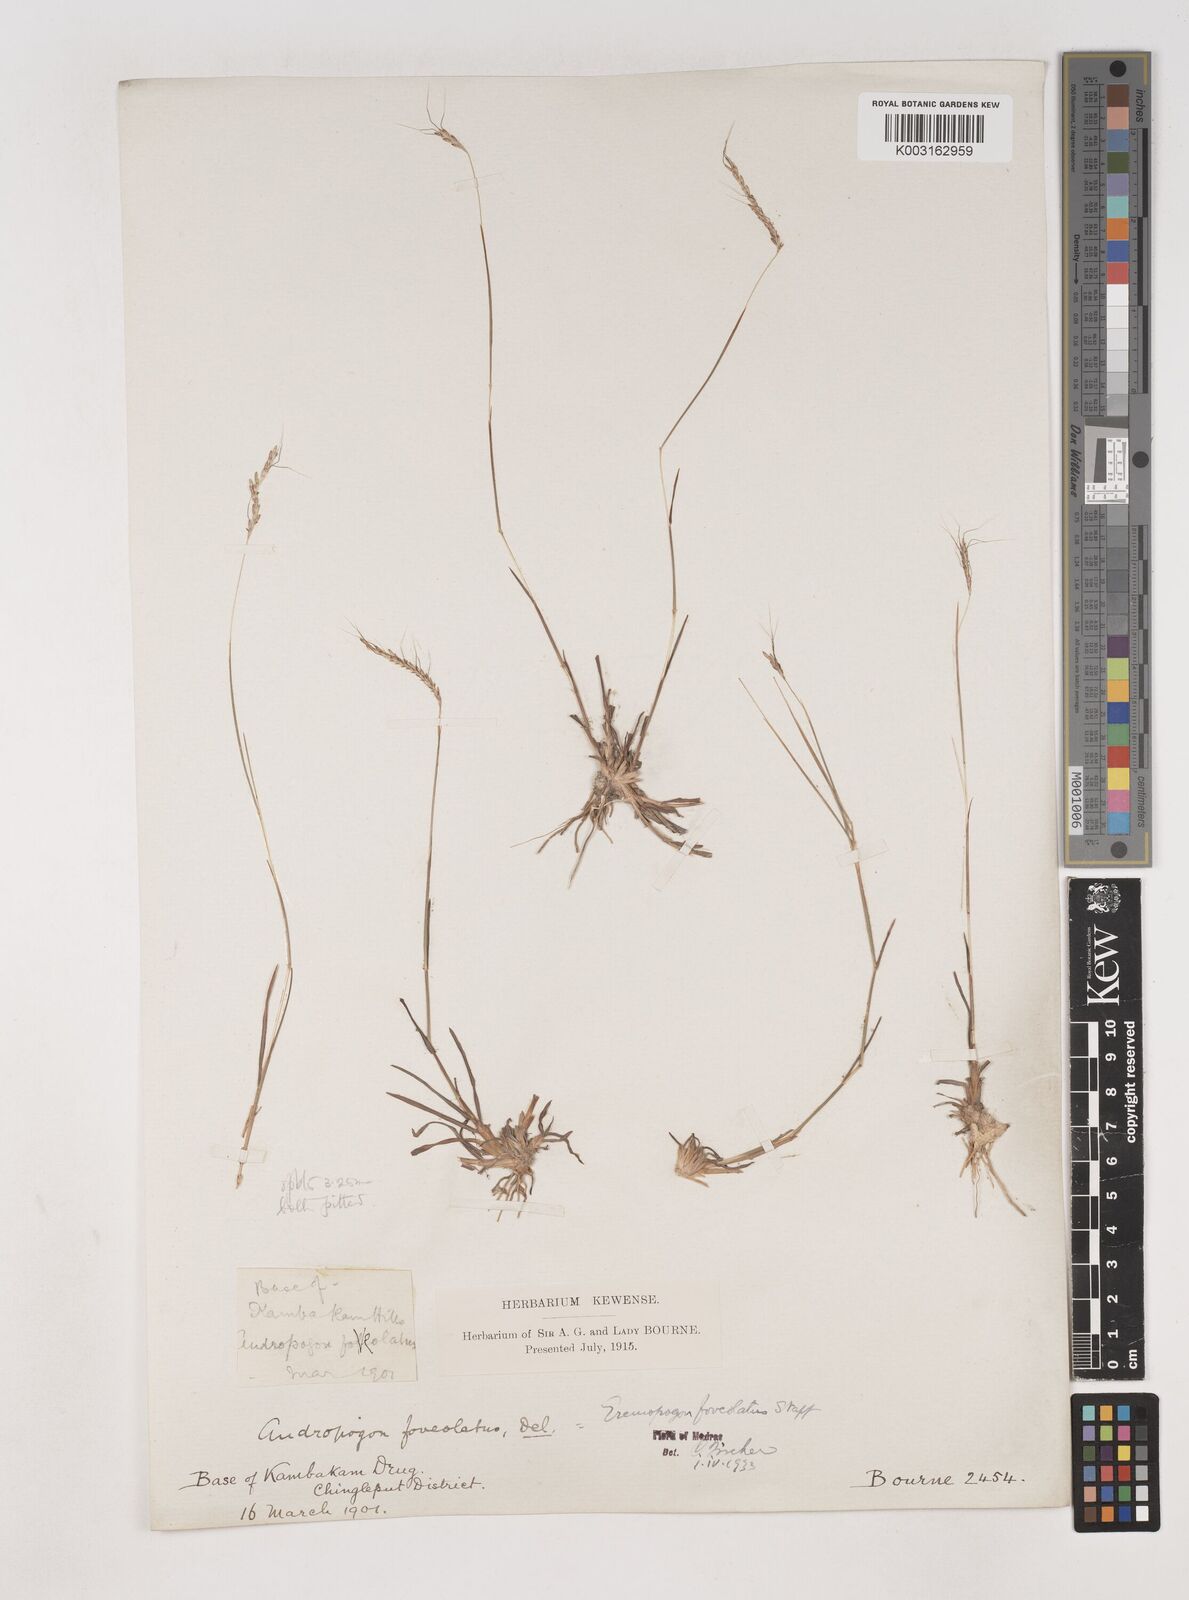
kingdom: Plantae
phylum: Tracheophyta
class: Liliopsida
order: Poales
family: Poaceae
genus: Dichanthium
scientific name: Dichanthium
